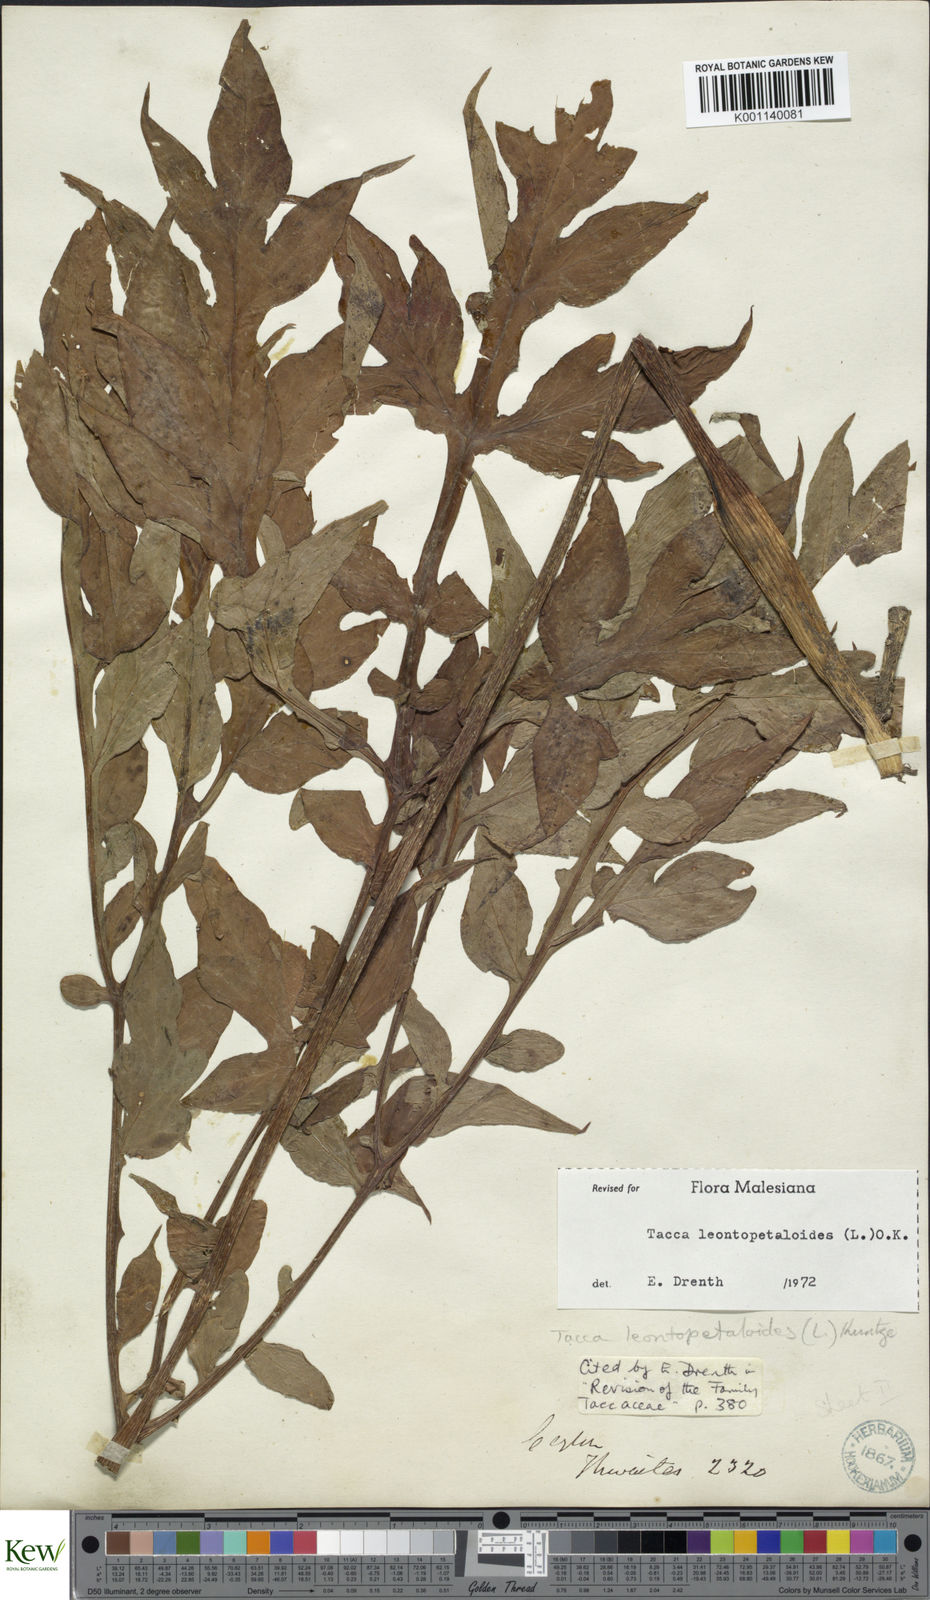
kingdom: Plantae
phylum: Tracheophyta
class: Liliopsida
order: Dioscoreales
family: Dioscoreaceae
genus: Tacca
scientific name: Tacca leontopetaloides
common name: Arrowroot
